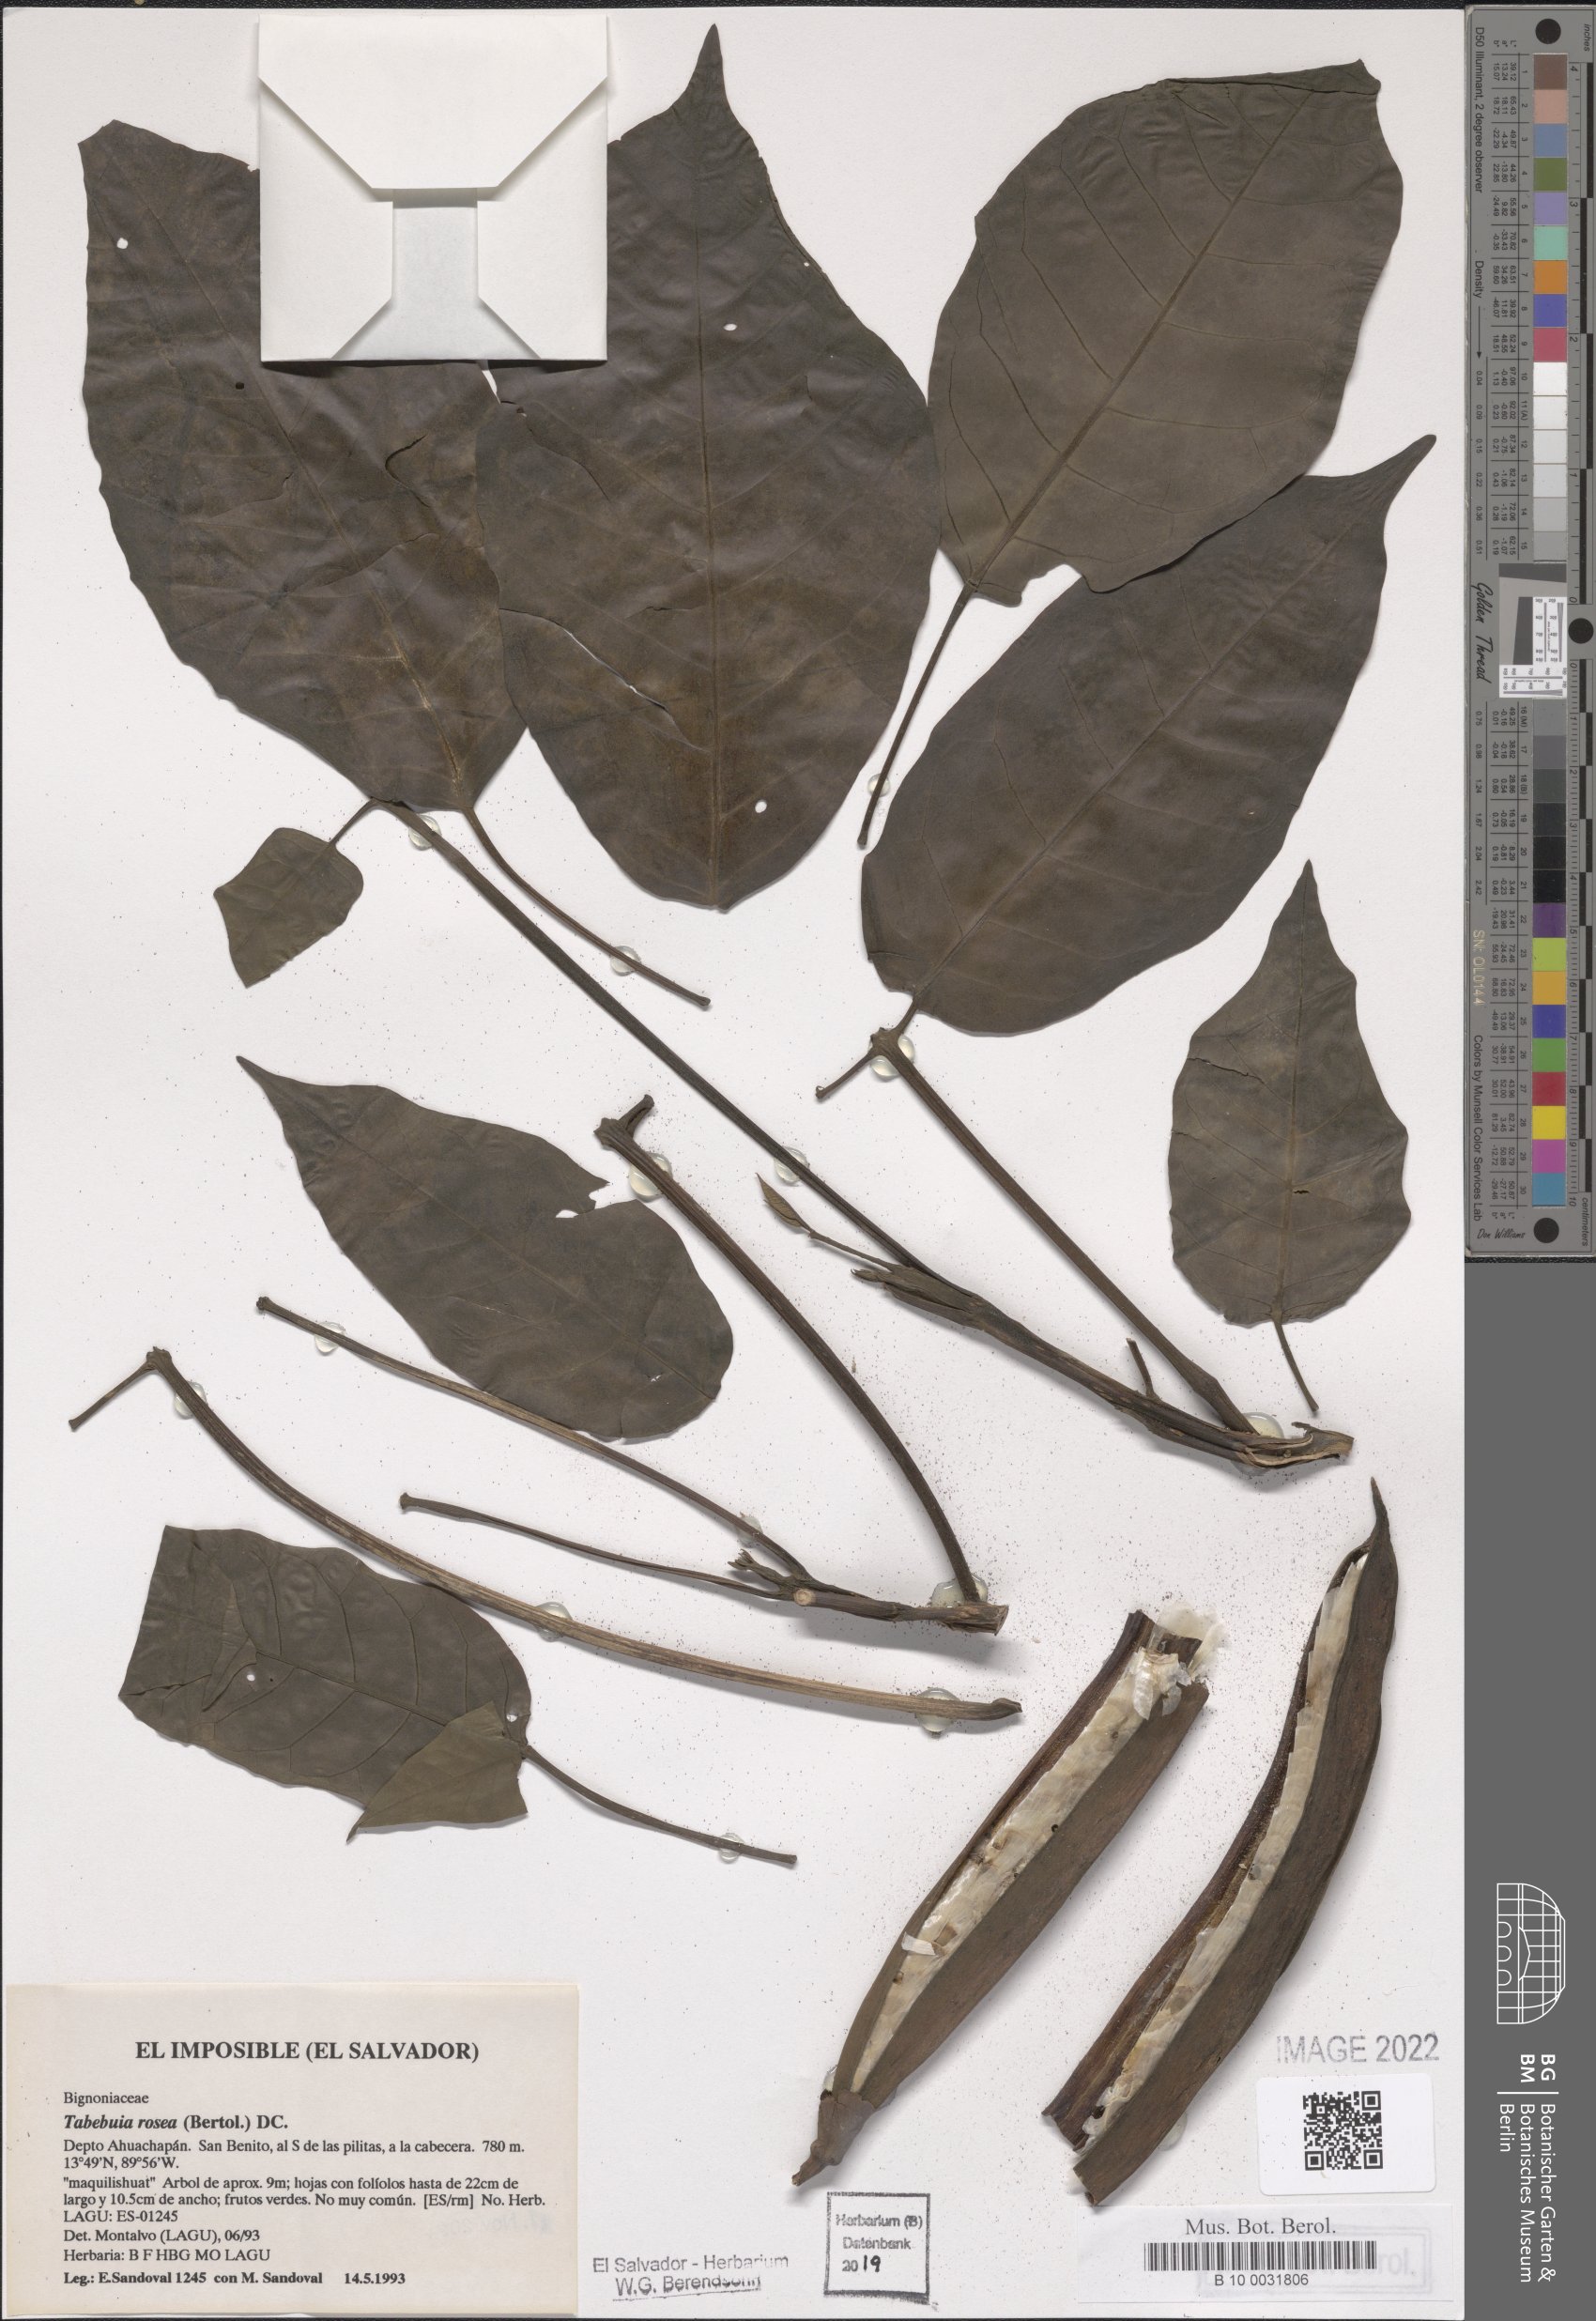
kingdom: Plantae
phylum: Tracheophyta
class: Magnoliopsida
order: Lamiales
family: Bignoniaceae
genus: Tabebuia
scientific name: Tabebuia rosea
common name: Pink poui
